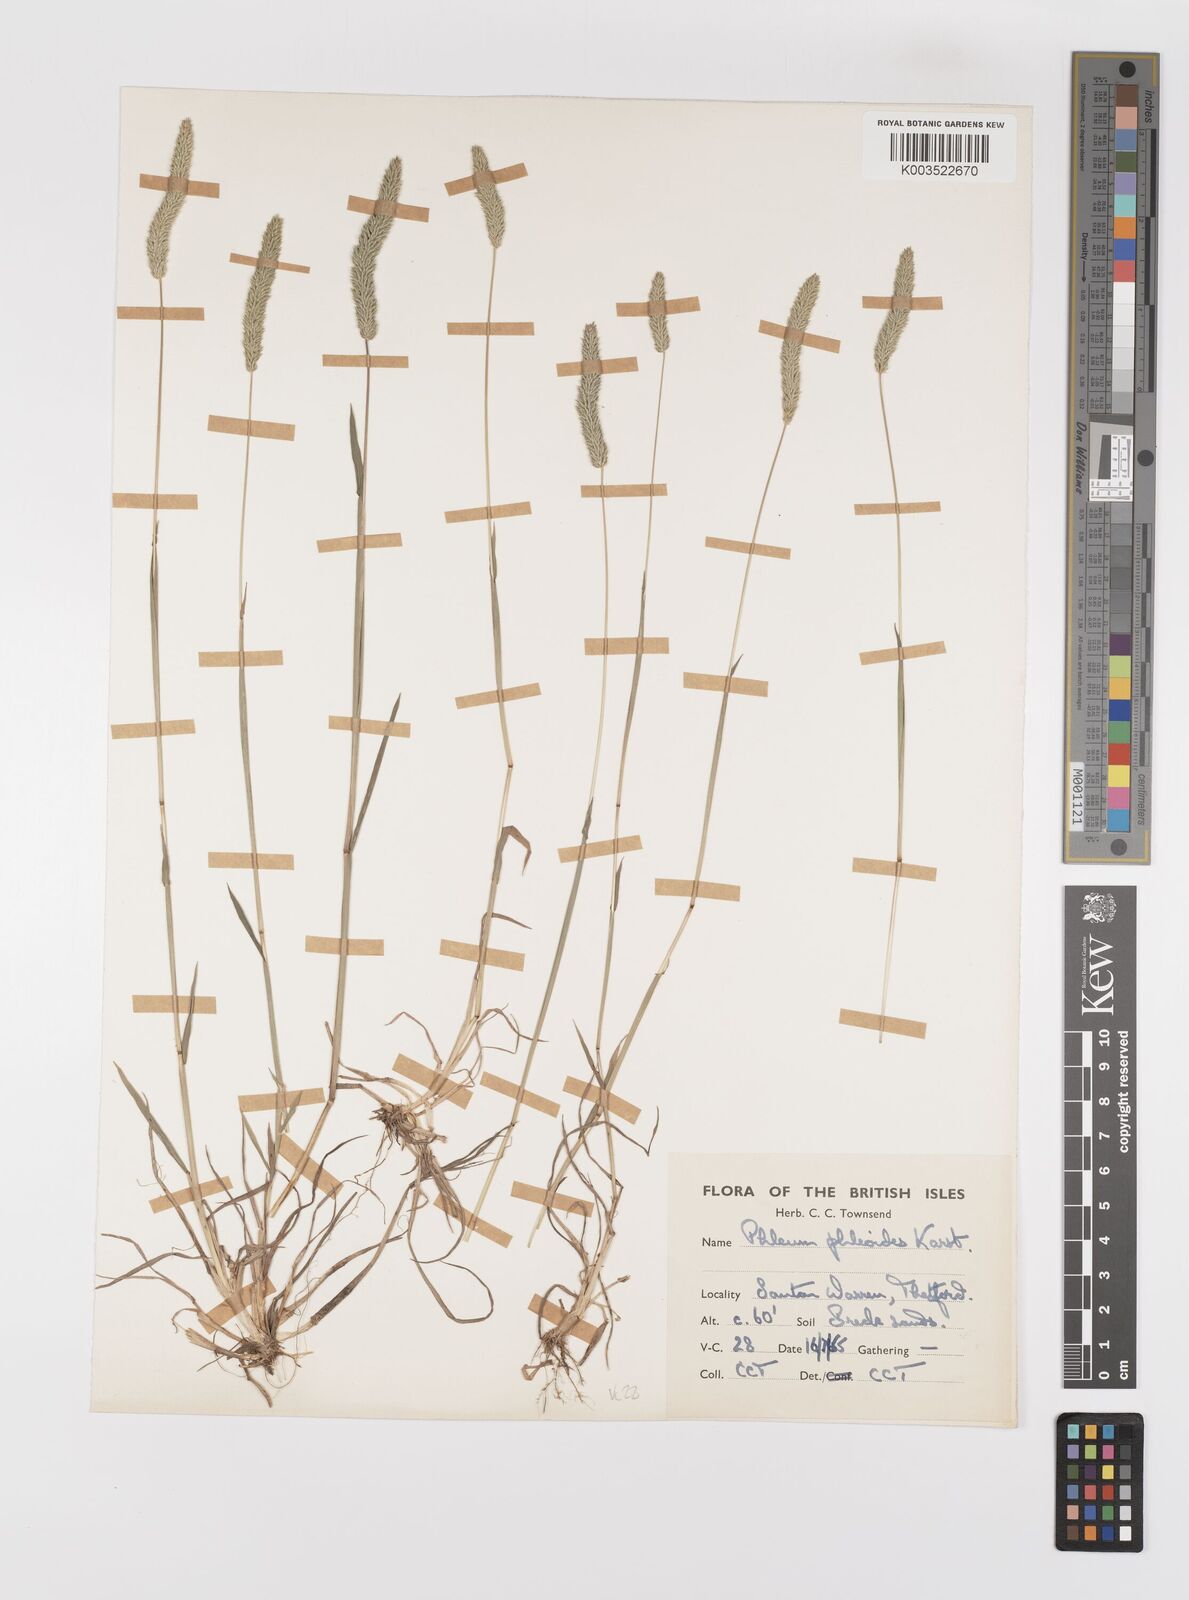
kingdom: Plantae
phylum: Tracheophyta
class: Liliopsida
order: Poales
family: Poaceae
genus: Phleum
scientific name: Phleum phleoides
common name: Purple-stem cat's-tail
